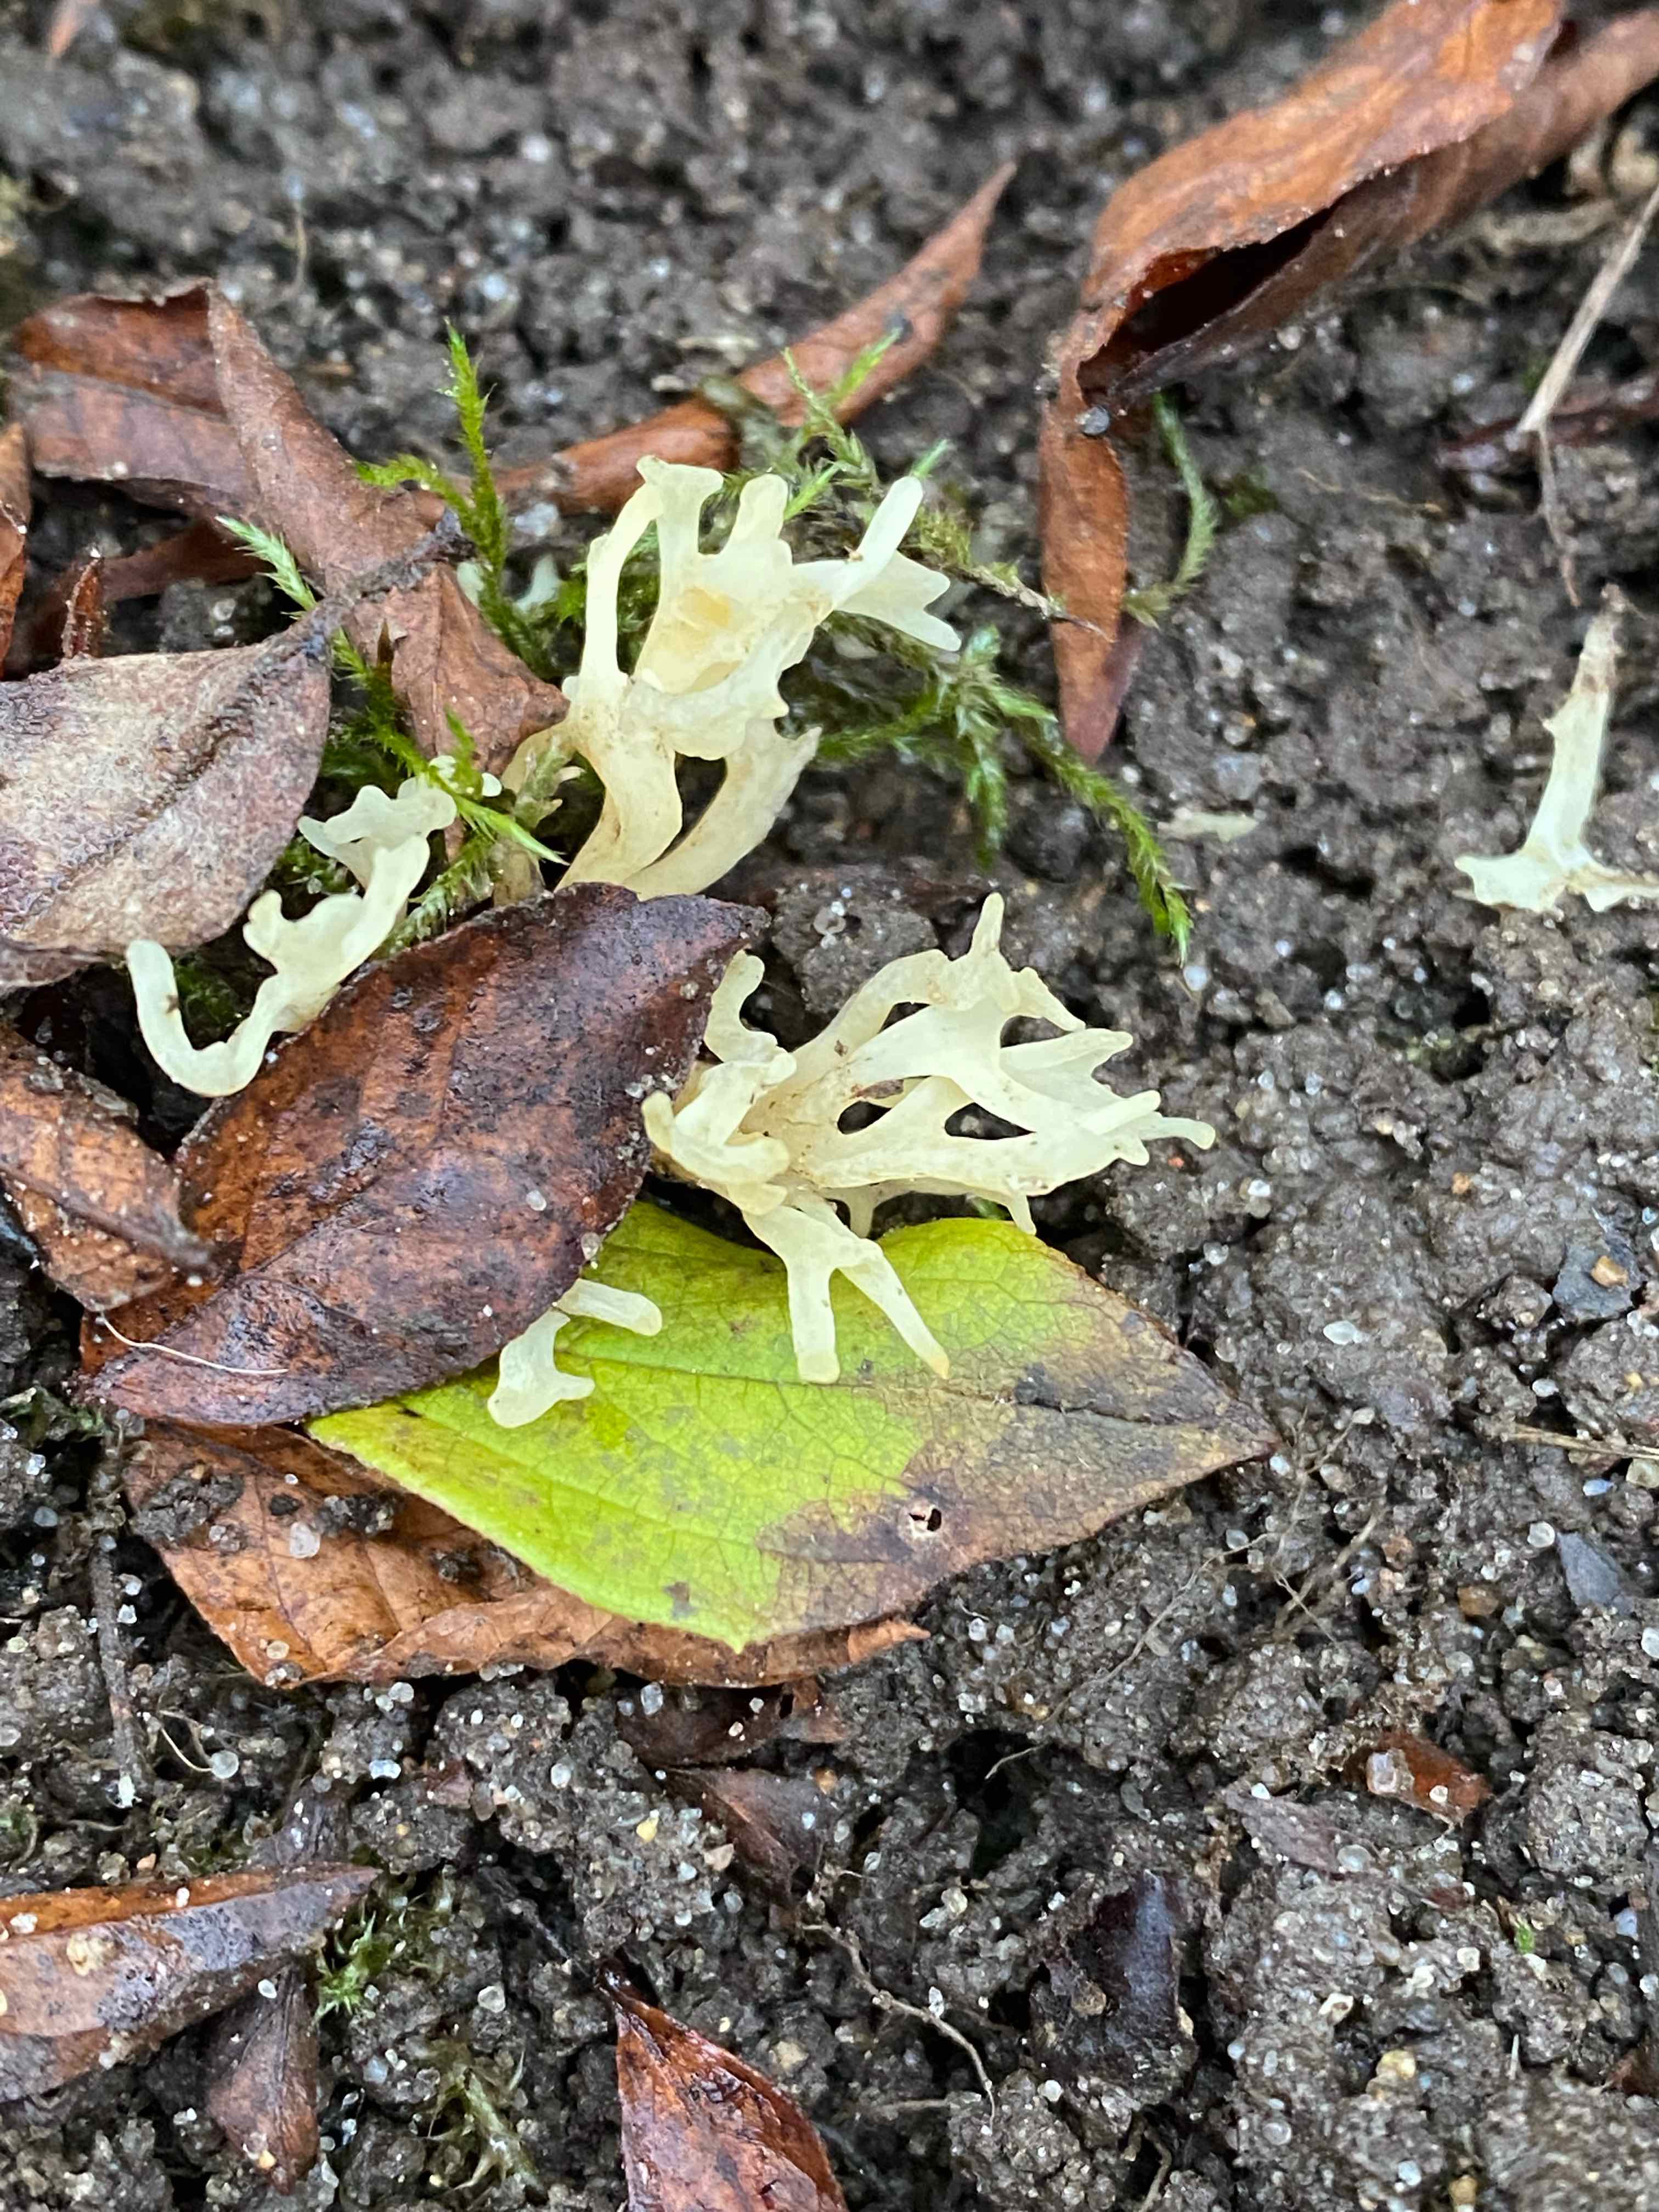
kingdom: Fungi
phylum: Basidiomycota
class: Agaricomycetes
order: Agaricales
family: Clavariaceae
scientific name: Clavariaceae
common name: køllesvampfamilien
